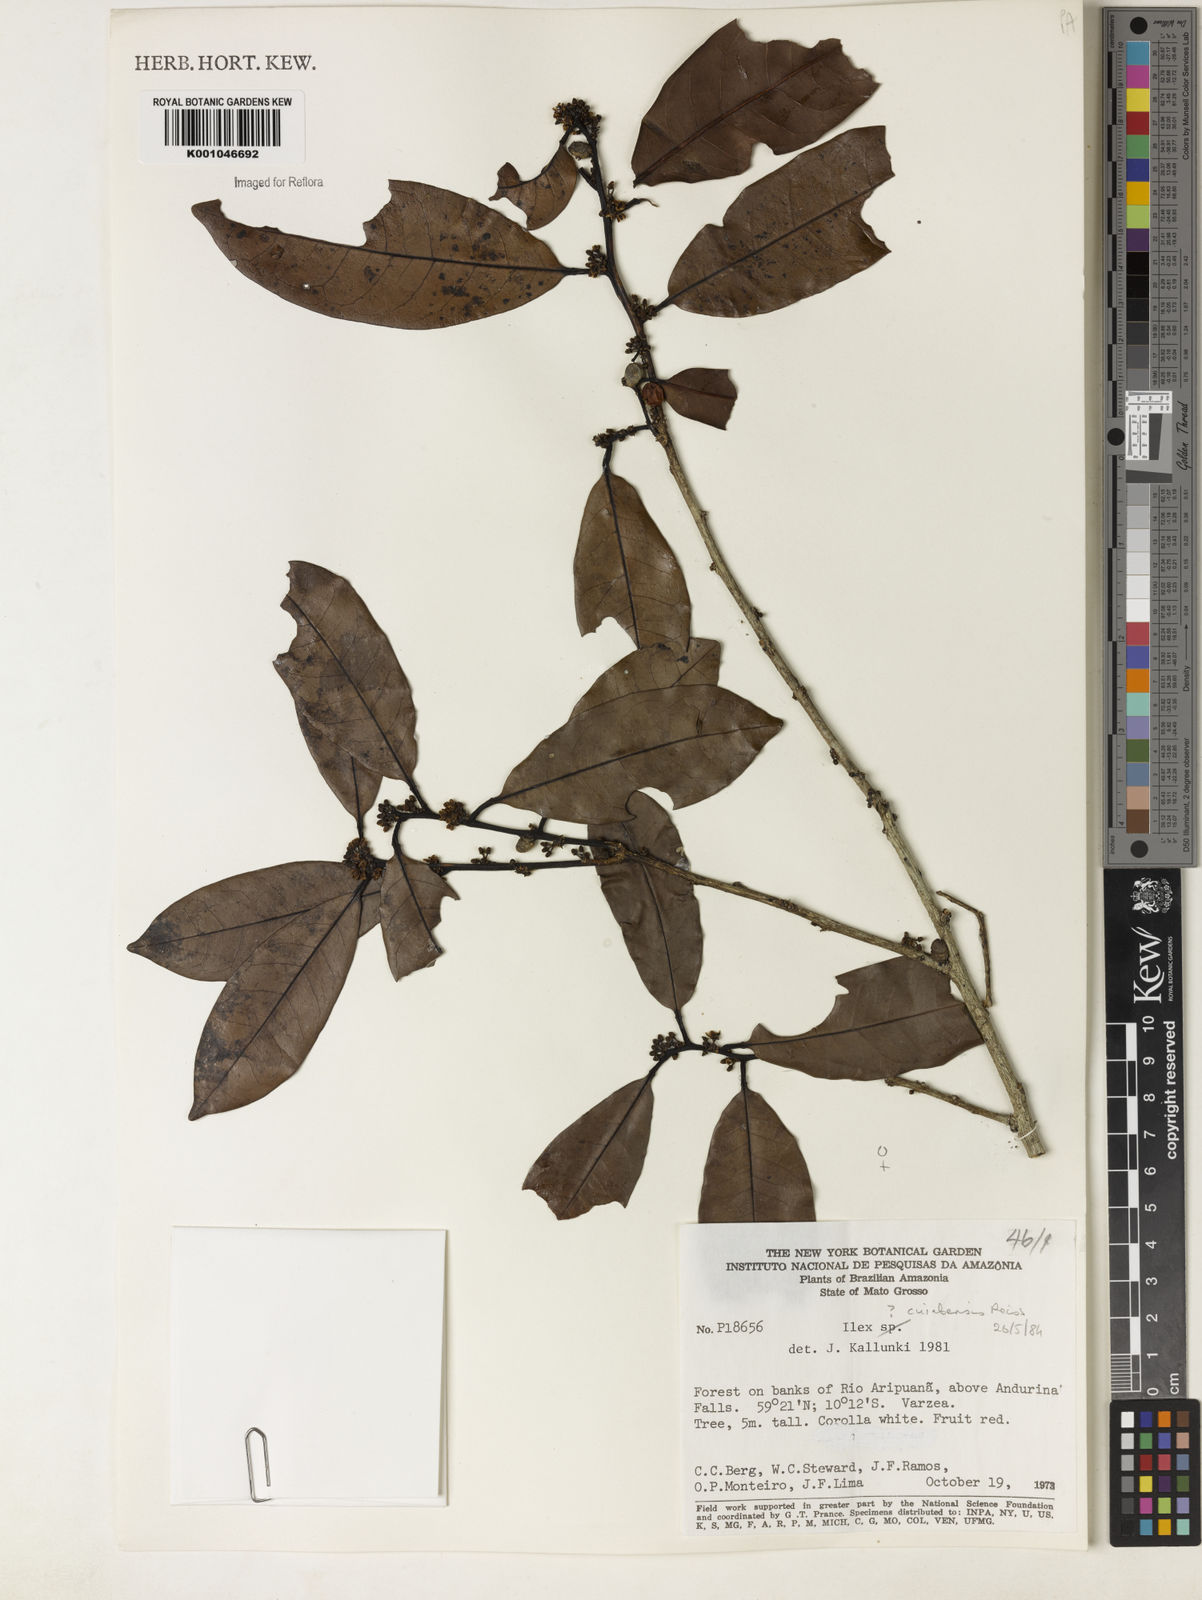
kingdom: Plantae
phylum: Tracheophyta
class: Magnoliopsida
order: Aquifoliales
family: Aquifoliaceae
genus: Ilex
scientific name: Ilex cuiabensis
